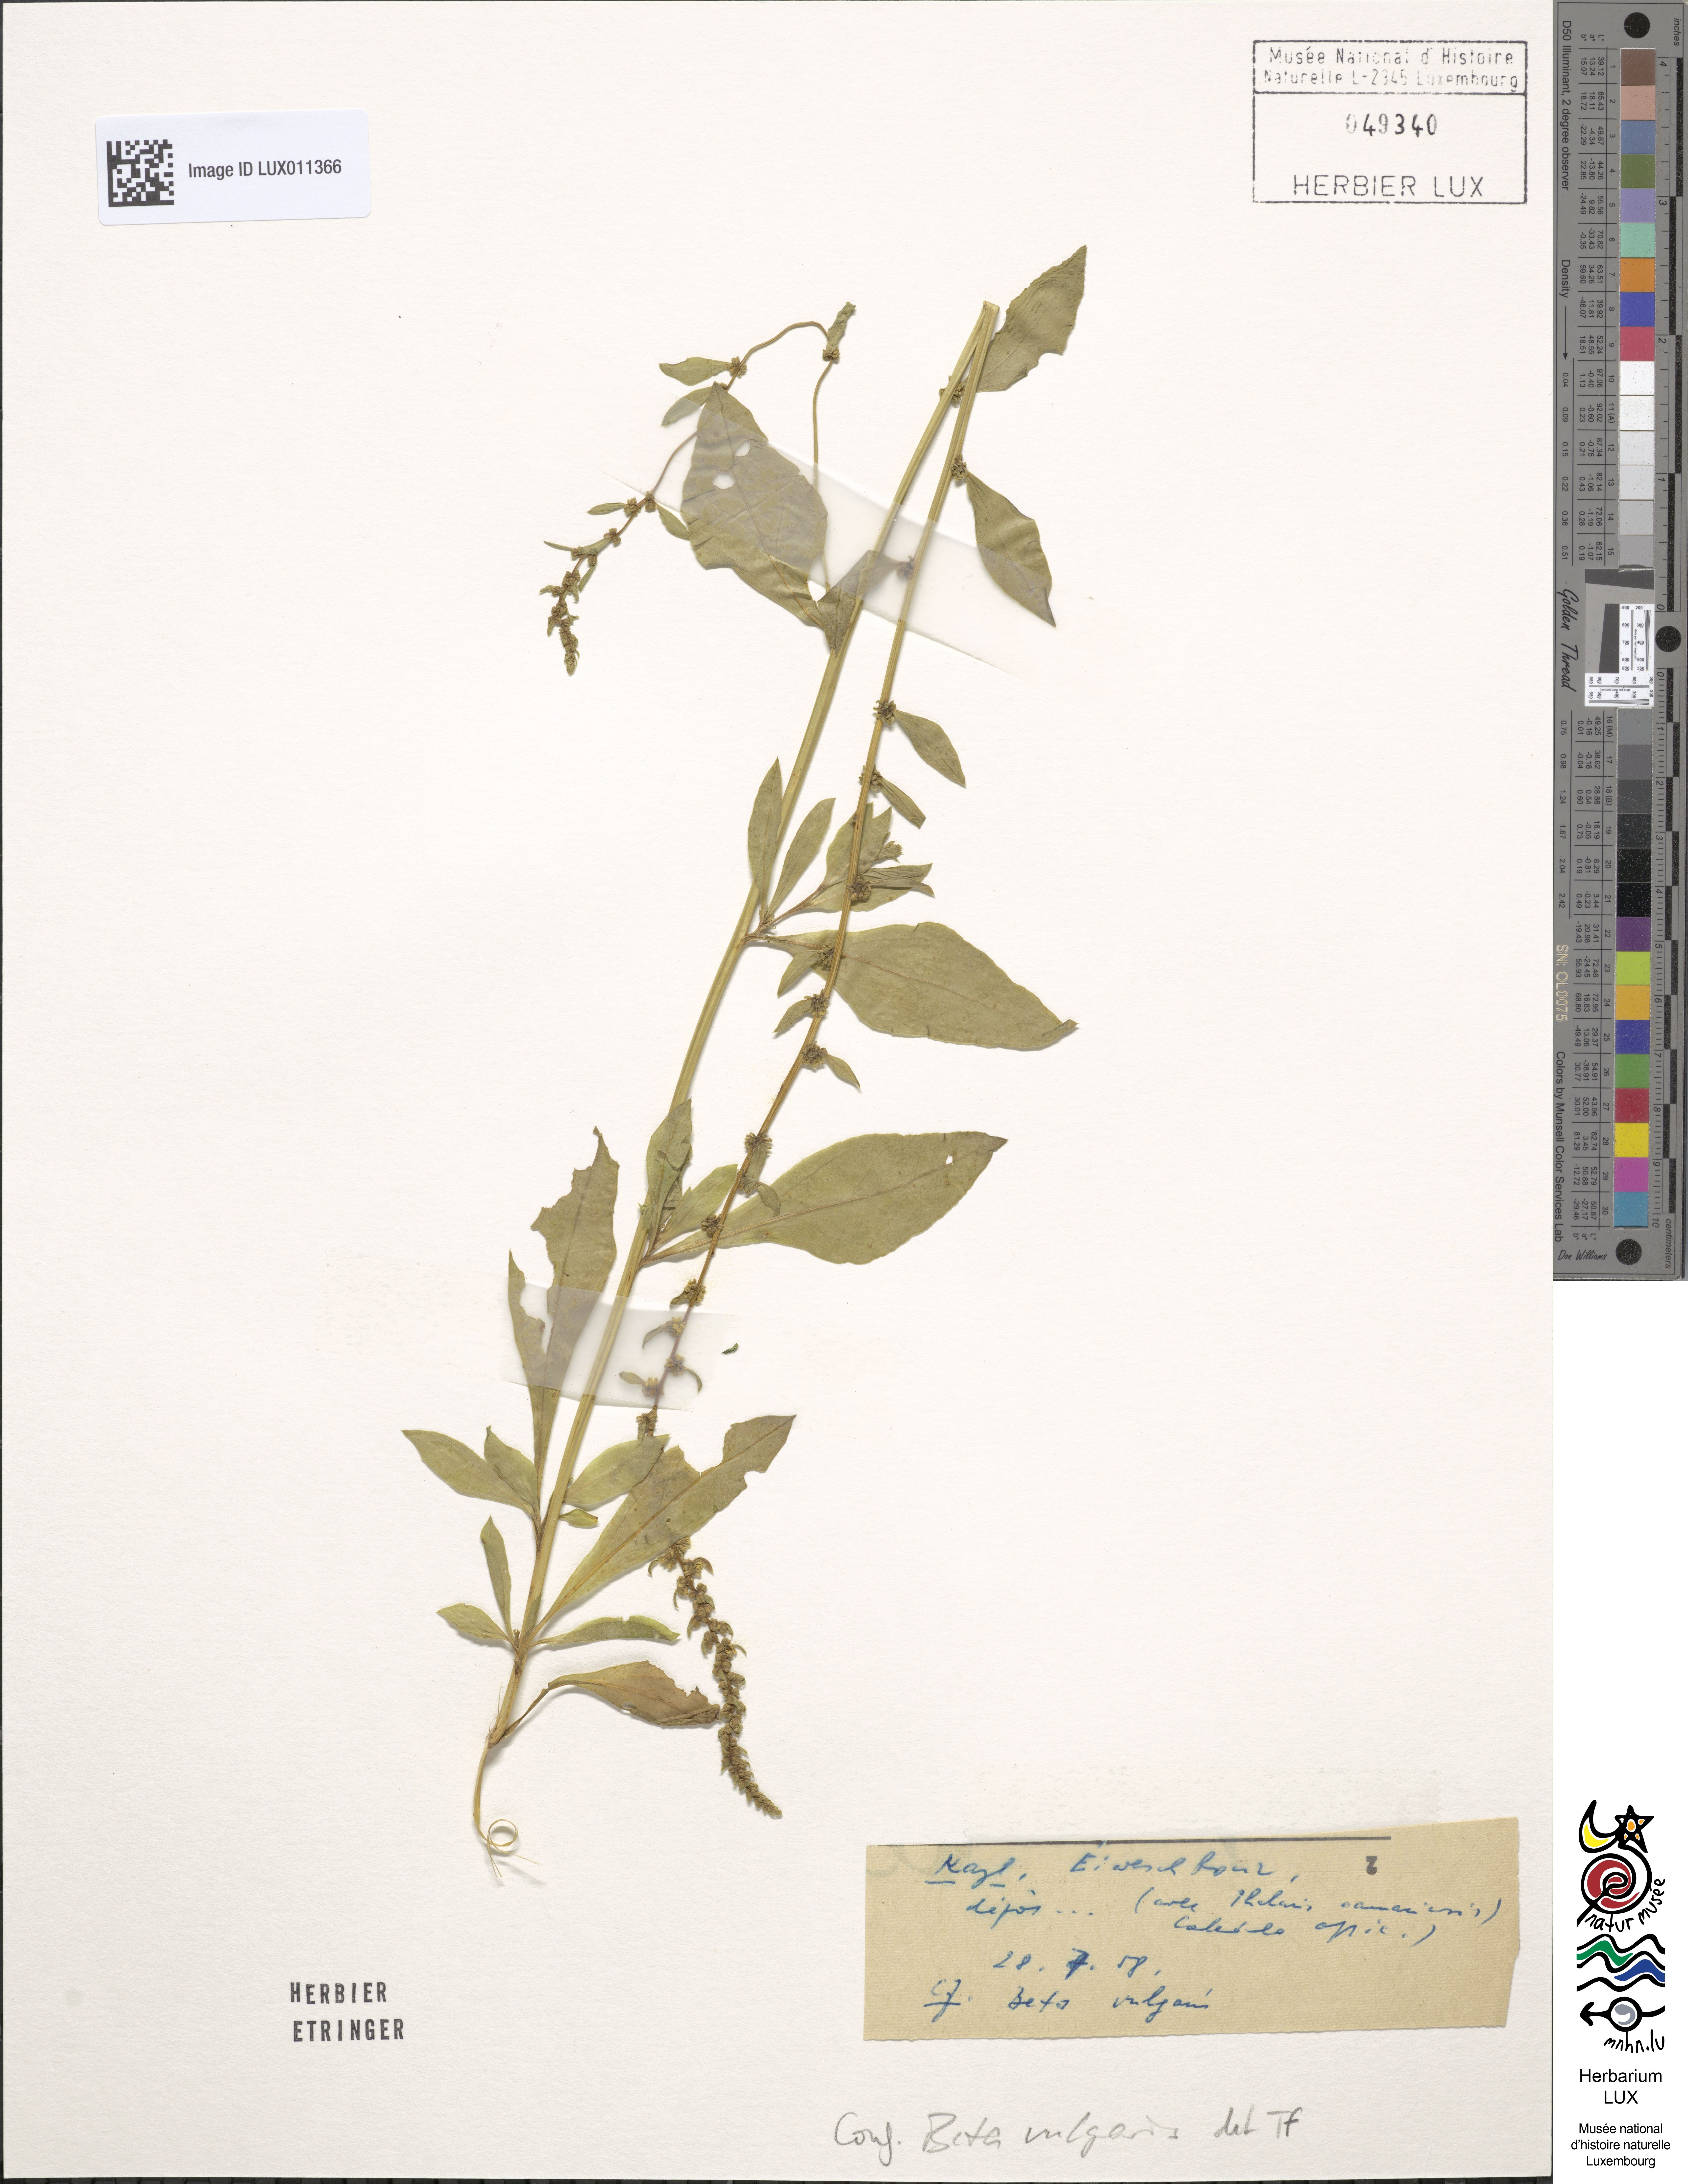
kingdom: Plantae
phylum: Tracheophyta
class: Magnoliopsida
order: Caryophyllales
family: Amaranthaceae
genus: Beta
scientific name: Beta vulgaris
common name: Beet
